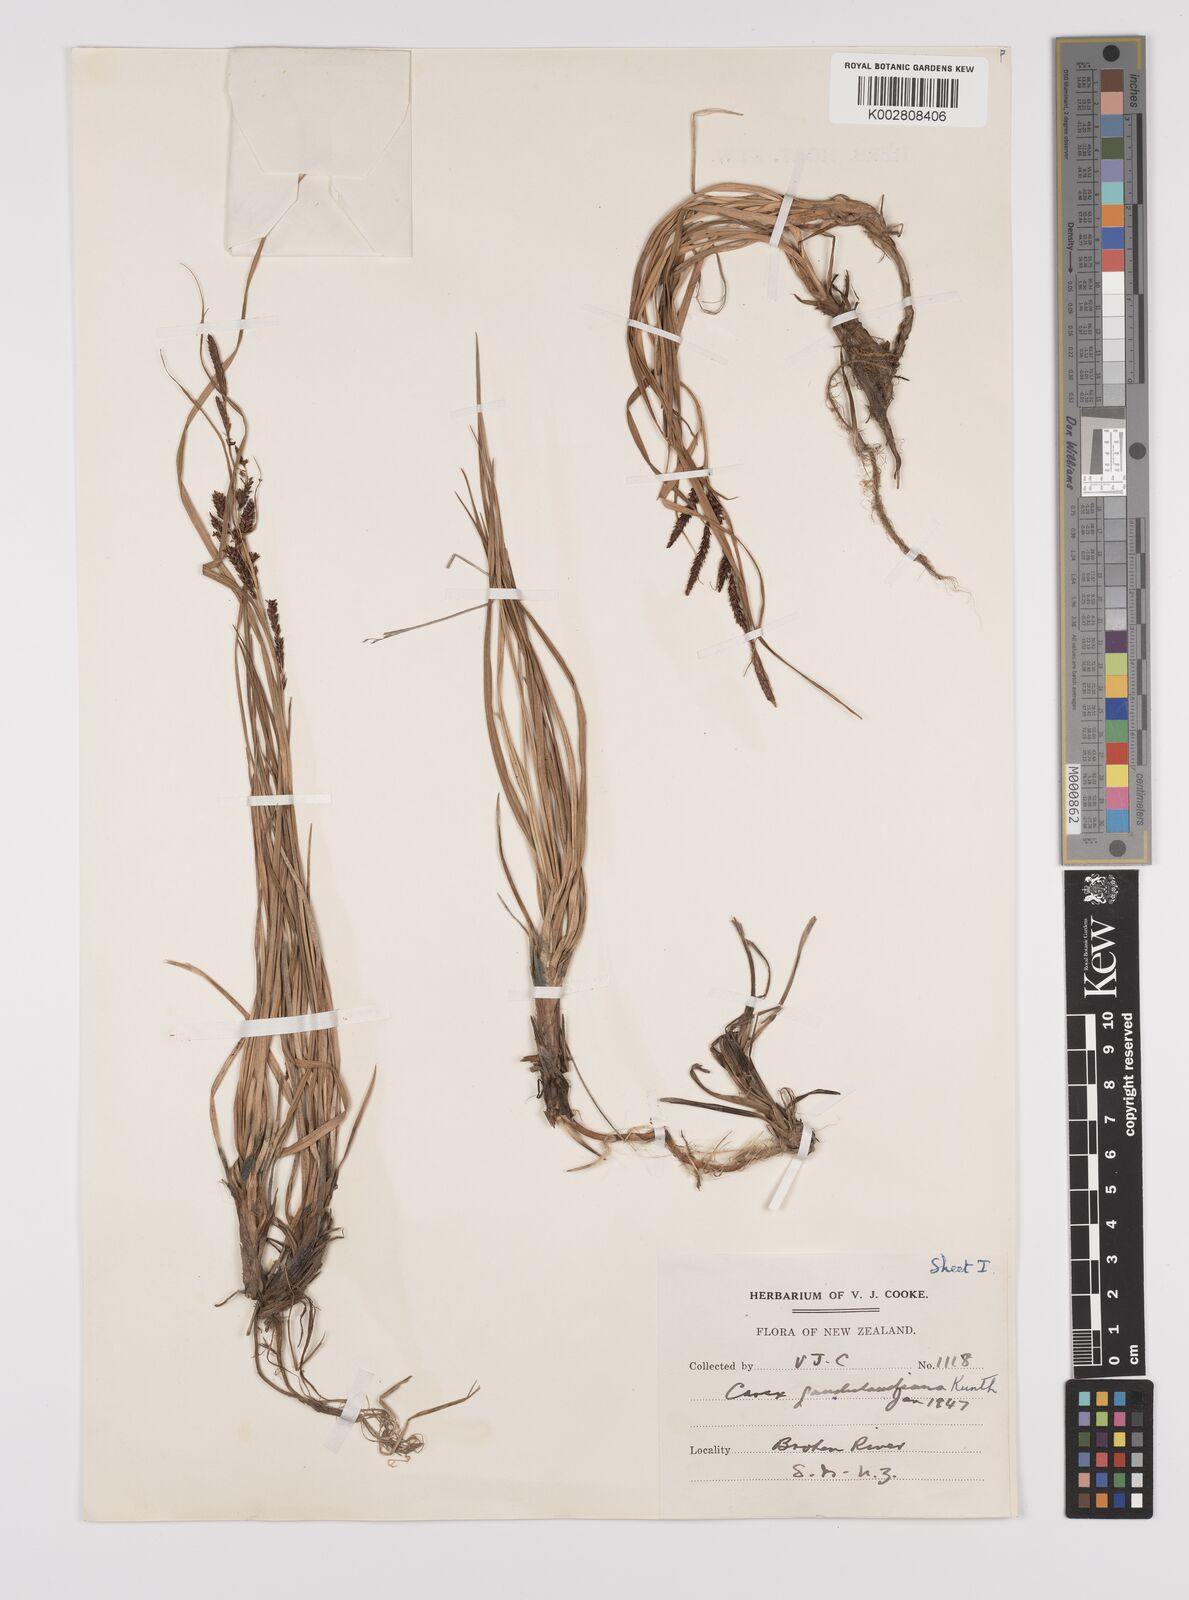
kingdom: Plantae
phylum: Tracheophyta
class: Liliopsida
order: Poales
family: Cyperaceae
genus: Carex
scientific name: Carex gaudichaudiana
